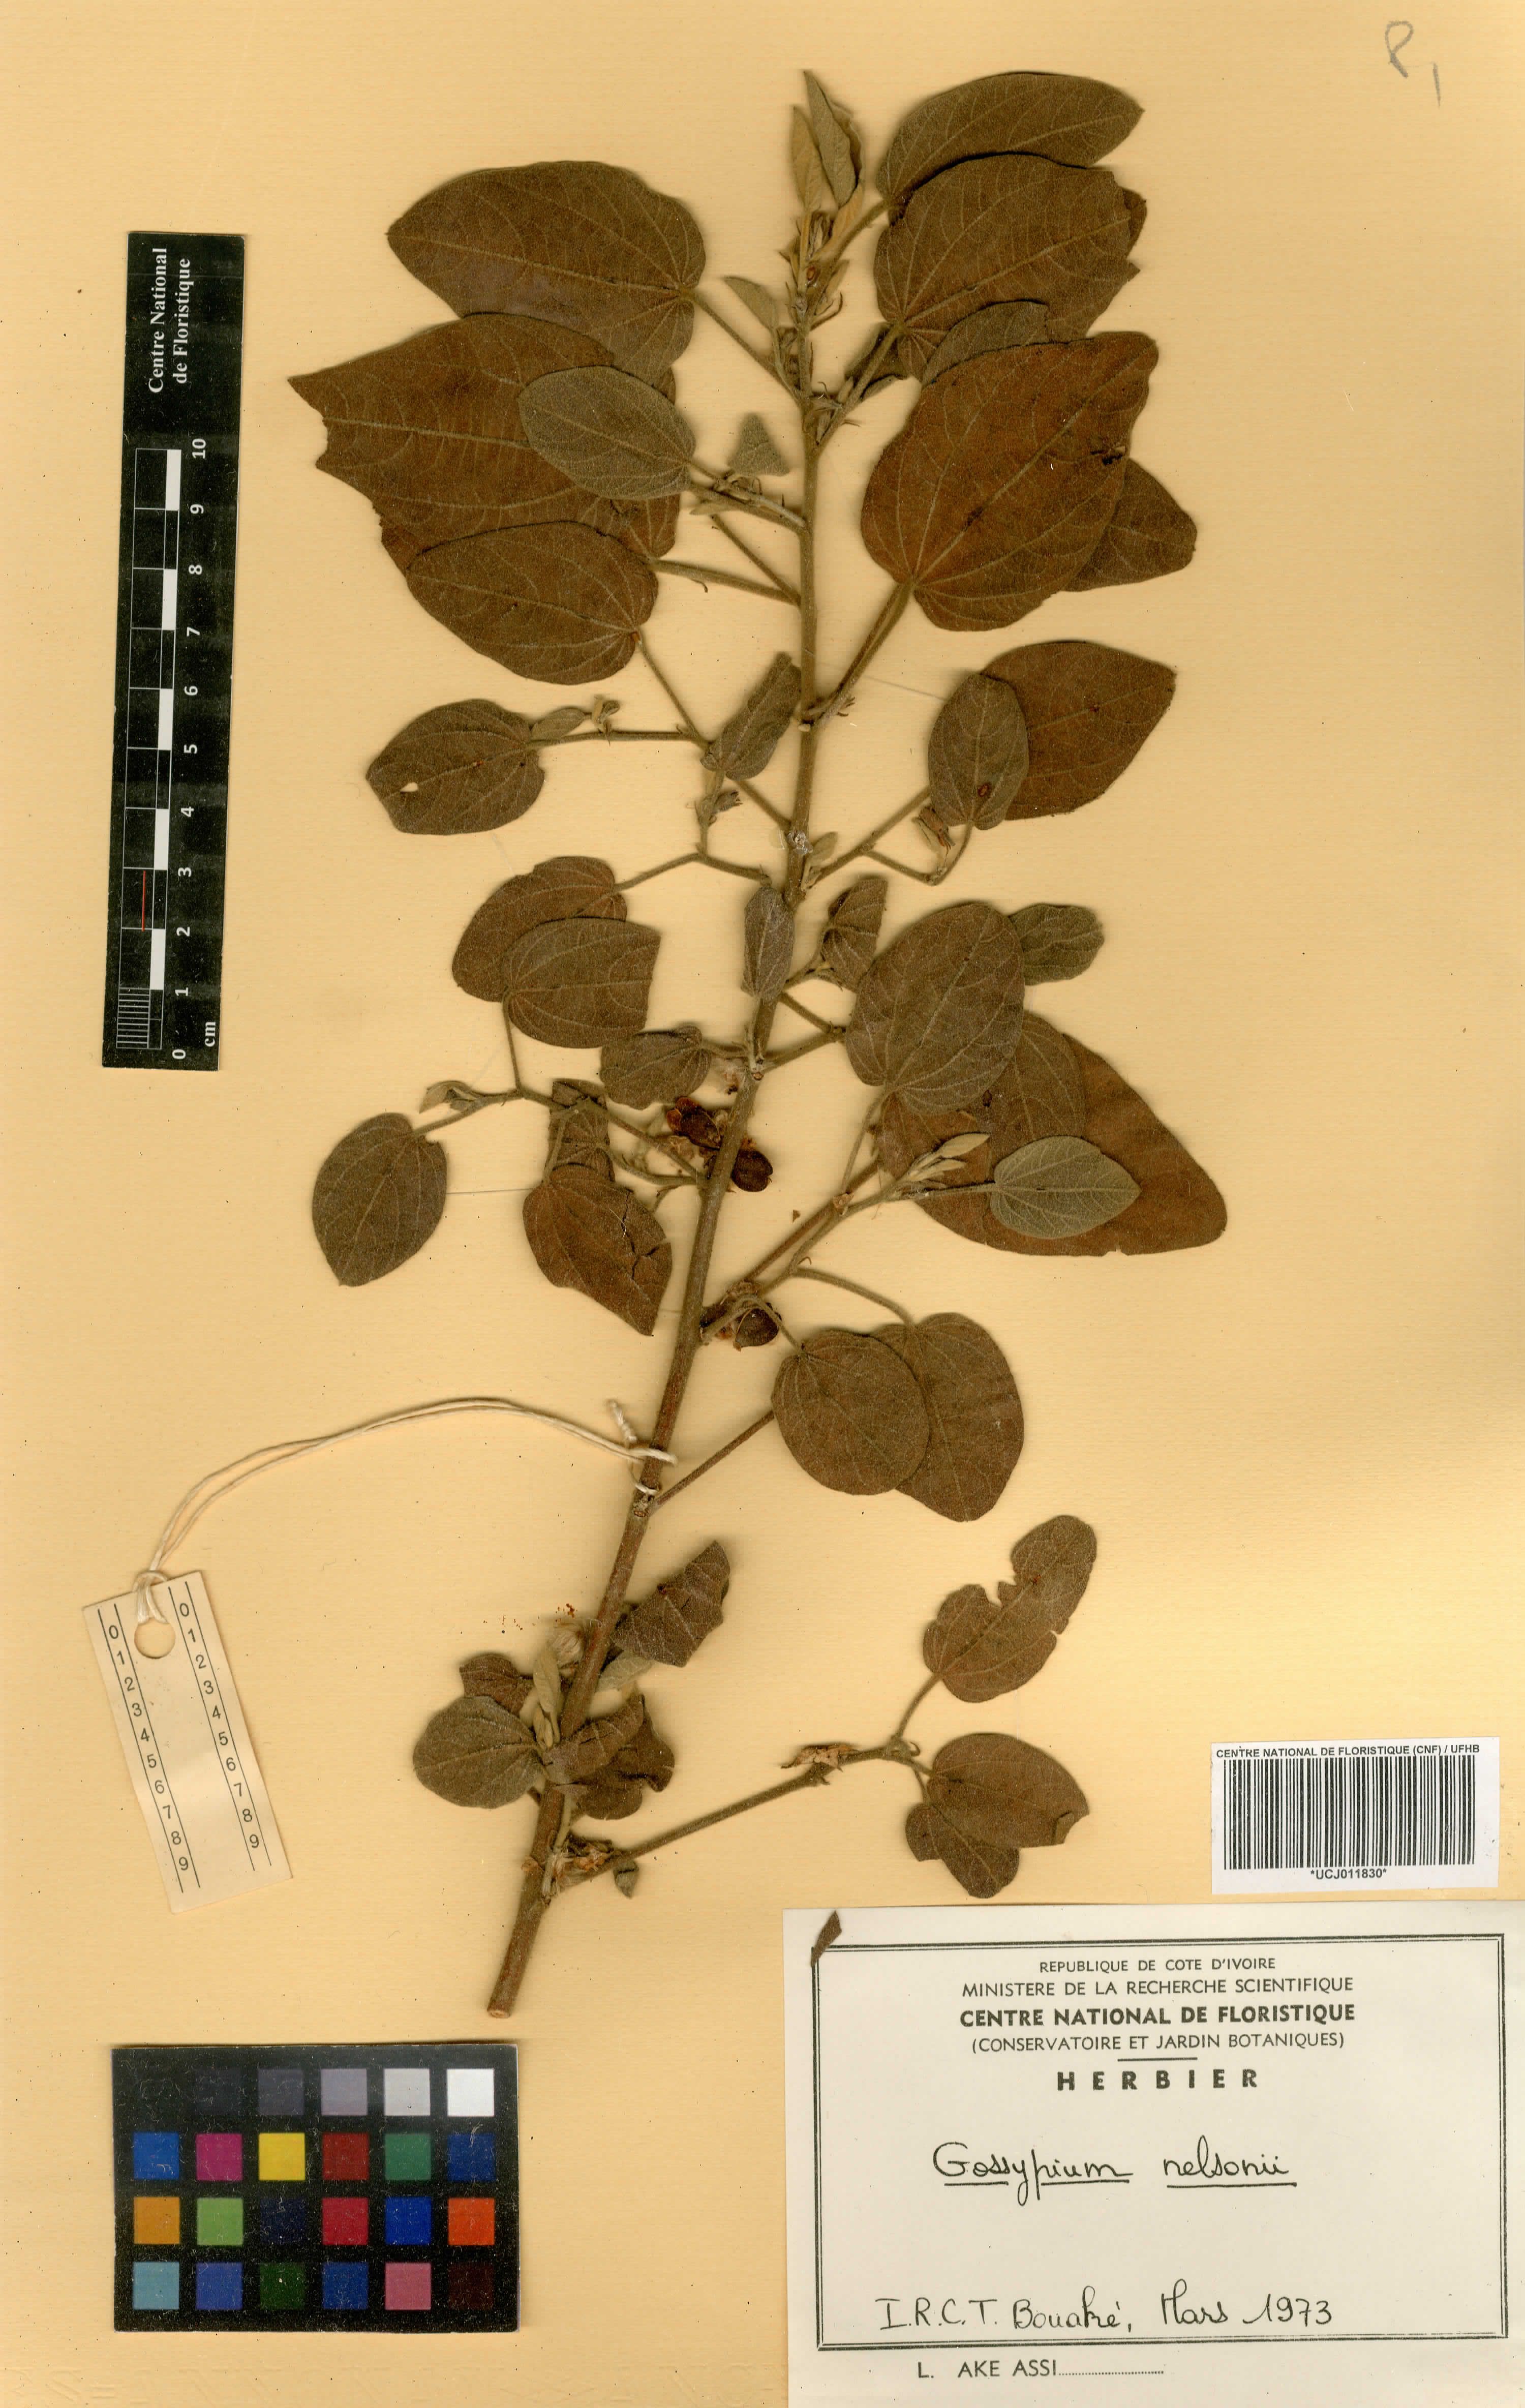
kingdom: Plantae
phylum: Tracheophyta
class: Magnoliopsida
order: Malvales
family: Malvaceae
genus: Gossypium
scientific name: Gossypium nelsonii
